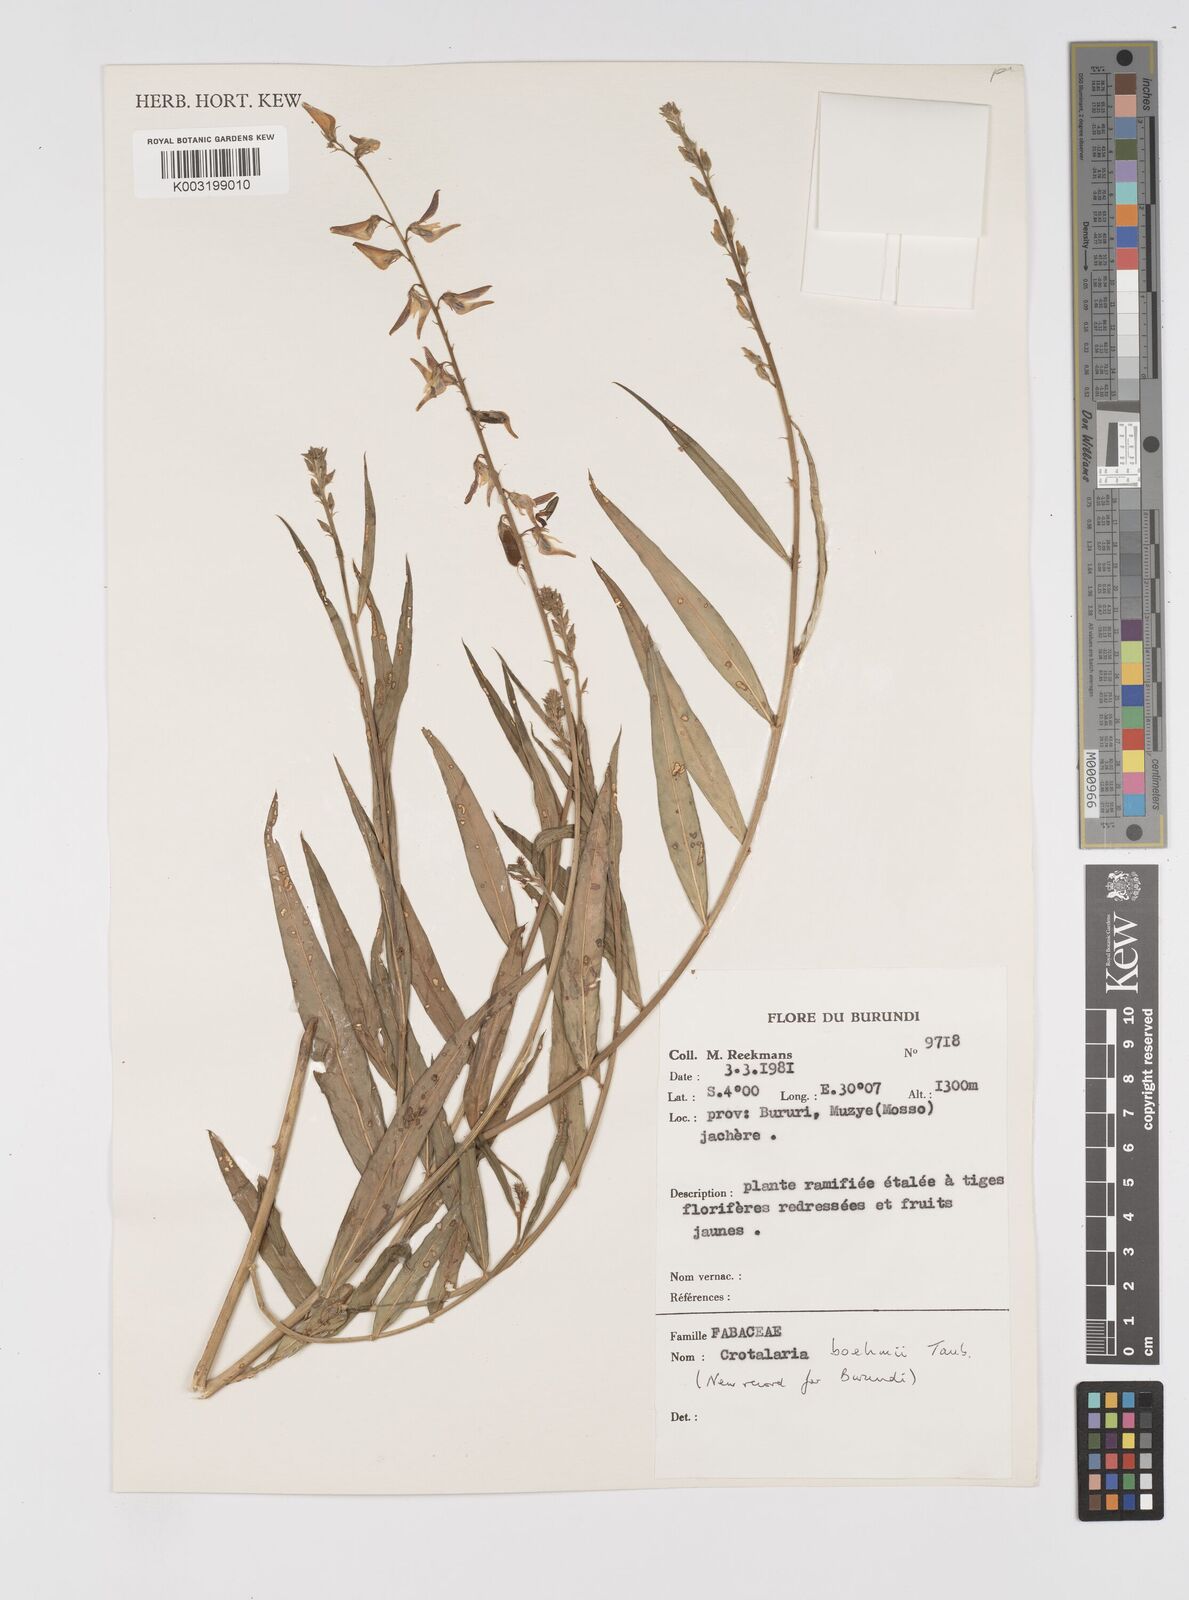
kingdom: Plantae
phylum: Tracheophyta
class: Magnoliopsida
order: Fabales
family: Fabaceae
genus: Crotalaria
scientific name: Crotalaria boehmii
